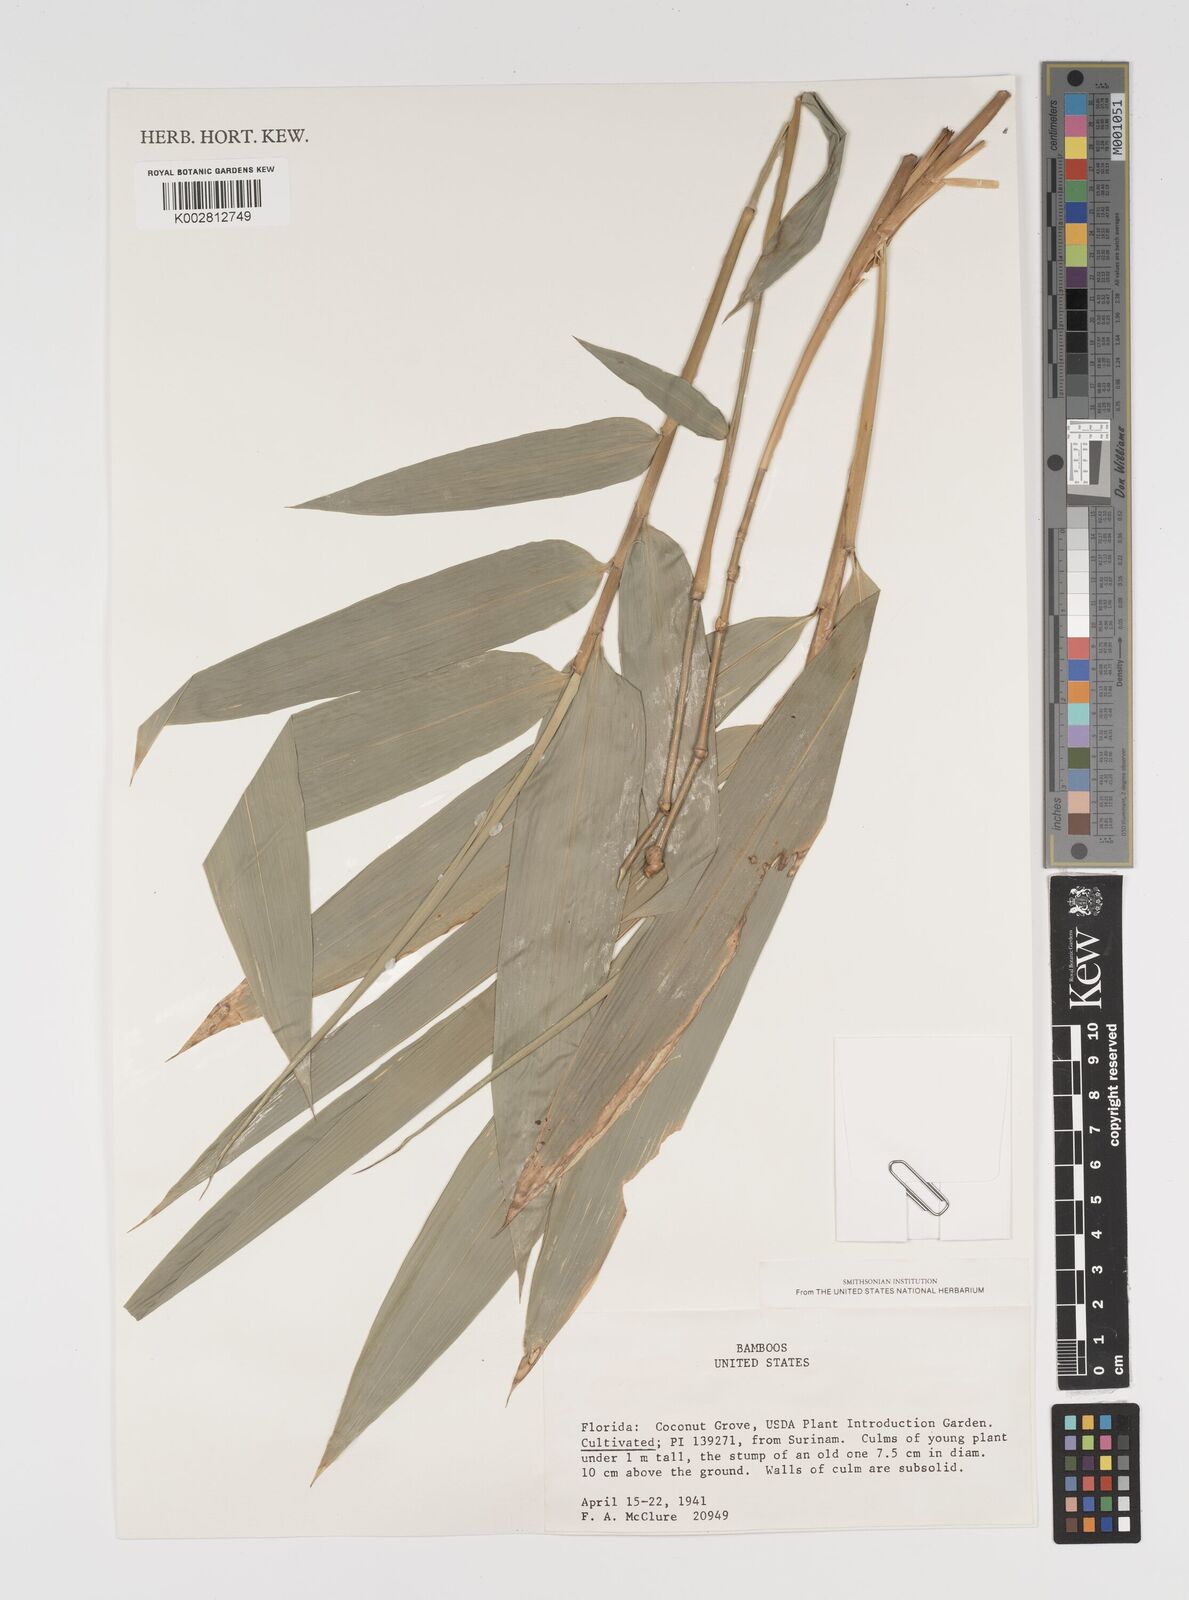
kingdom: Plantae
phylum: Tracheophyta
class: Liliopsida
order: Poales
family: Poaceae
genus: Arundinaria
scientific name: Arundinaria
